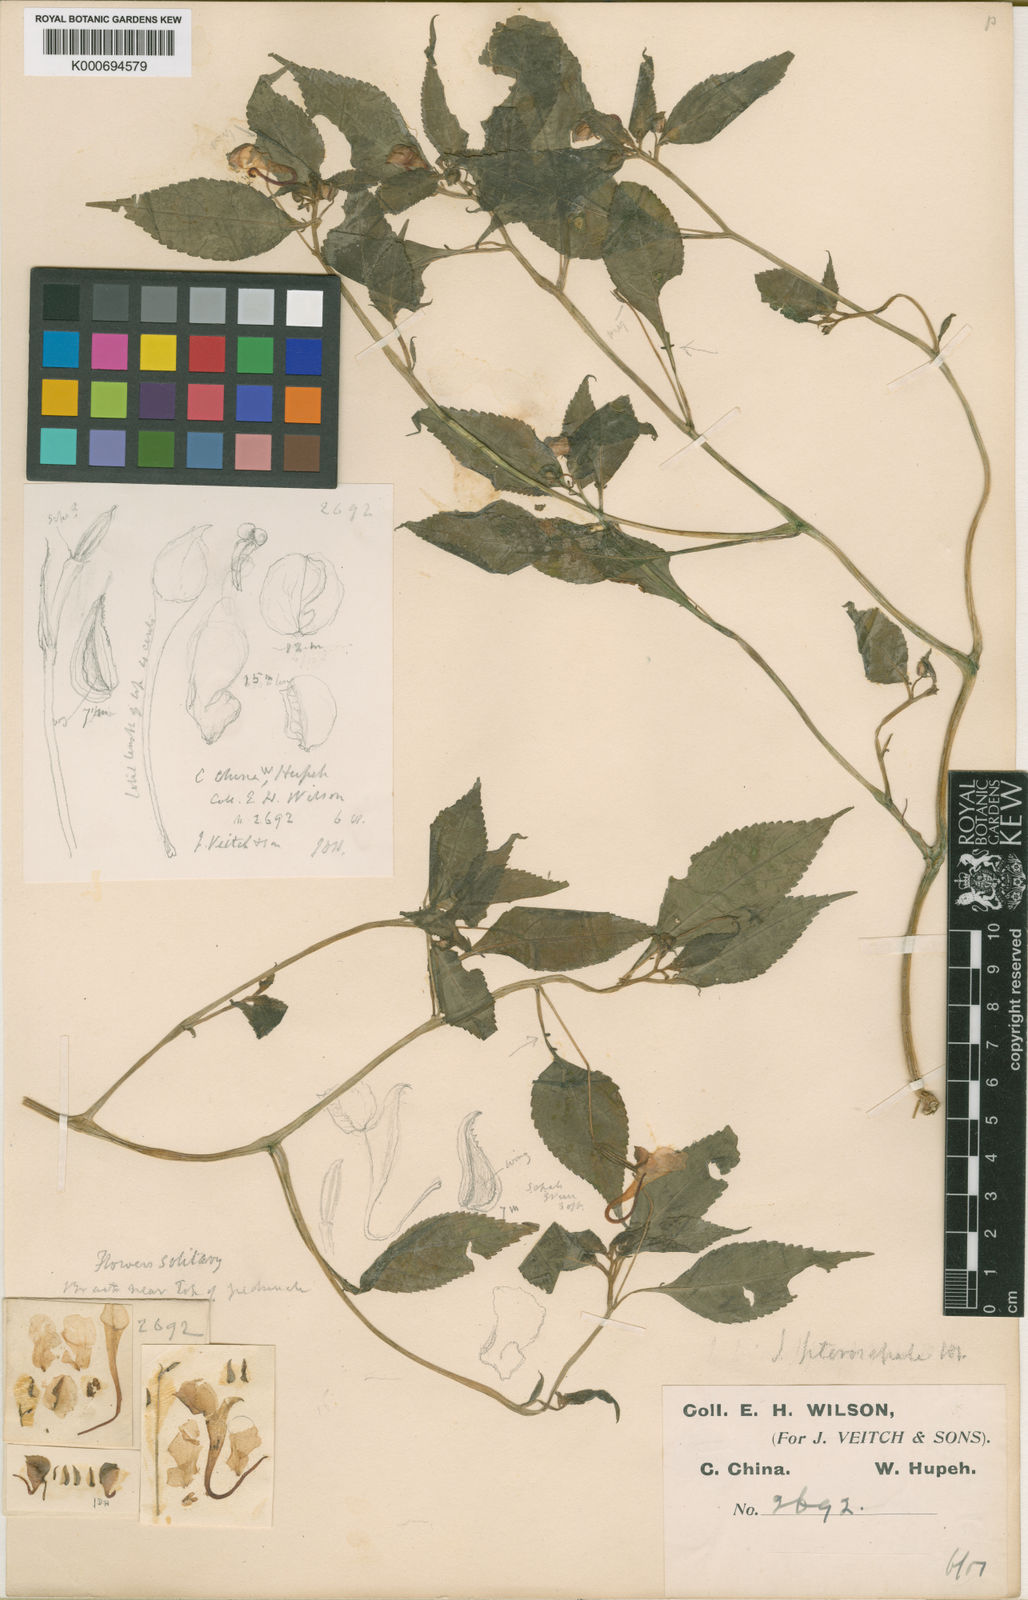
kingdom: Plantae
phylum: Tracheophyta
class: Magnoliopsida
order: Ericales
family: Balsaminaceae
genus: Impatiens
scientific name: Impatiens pterosepala
